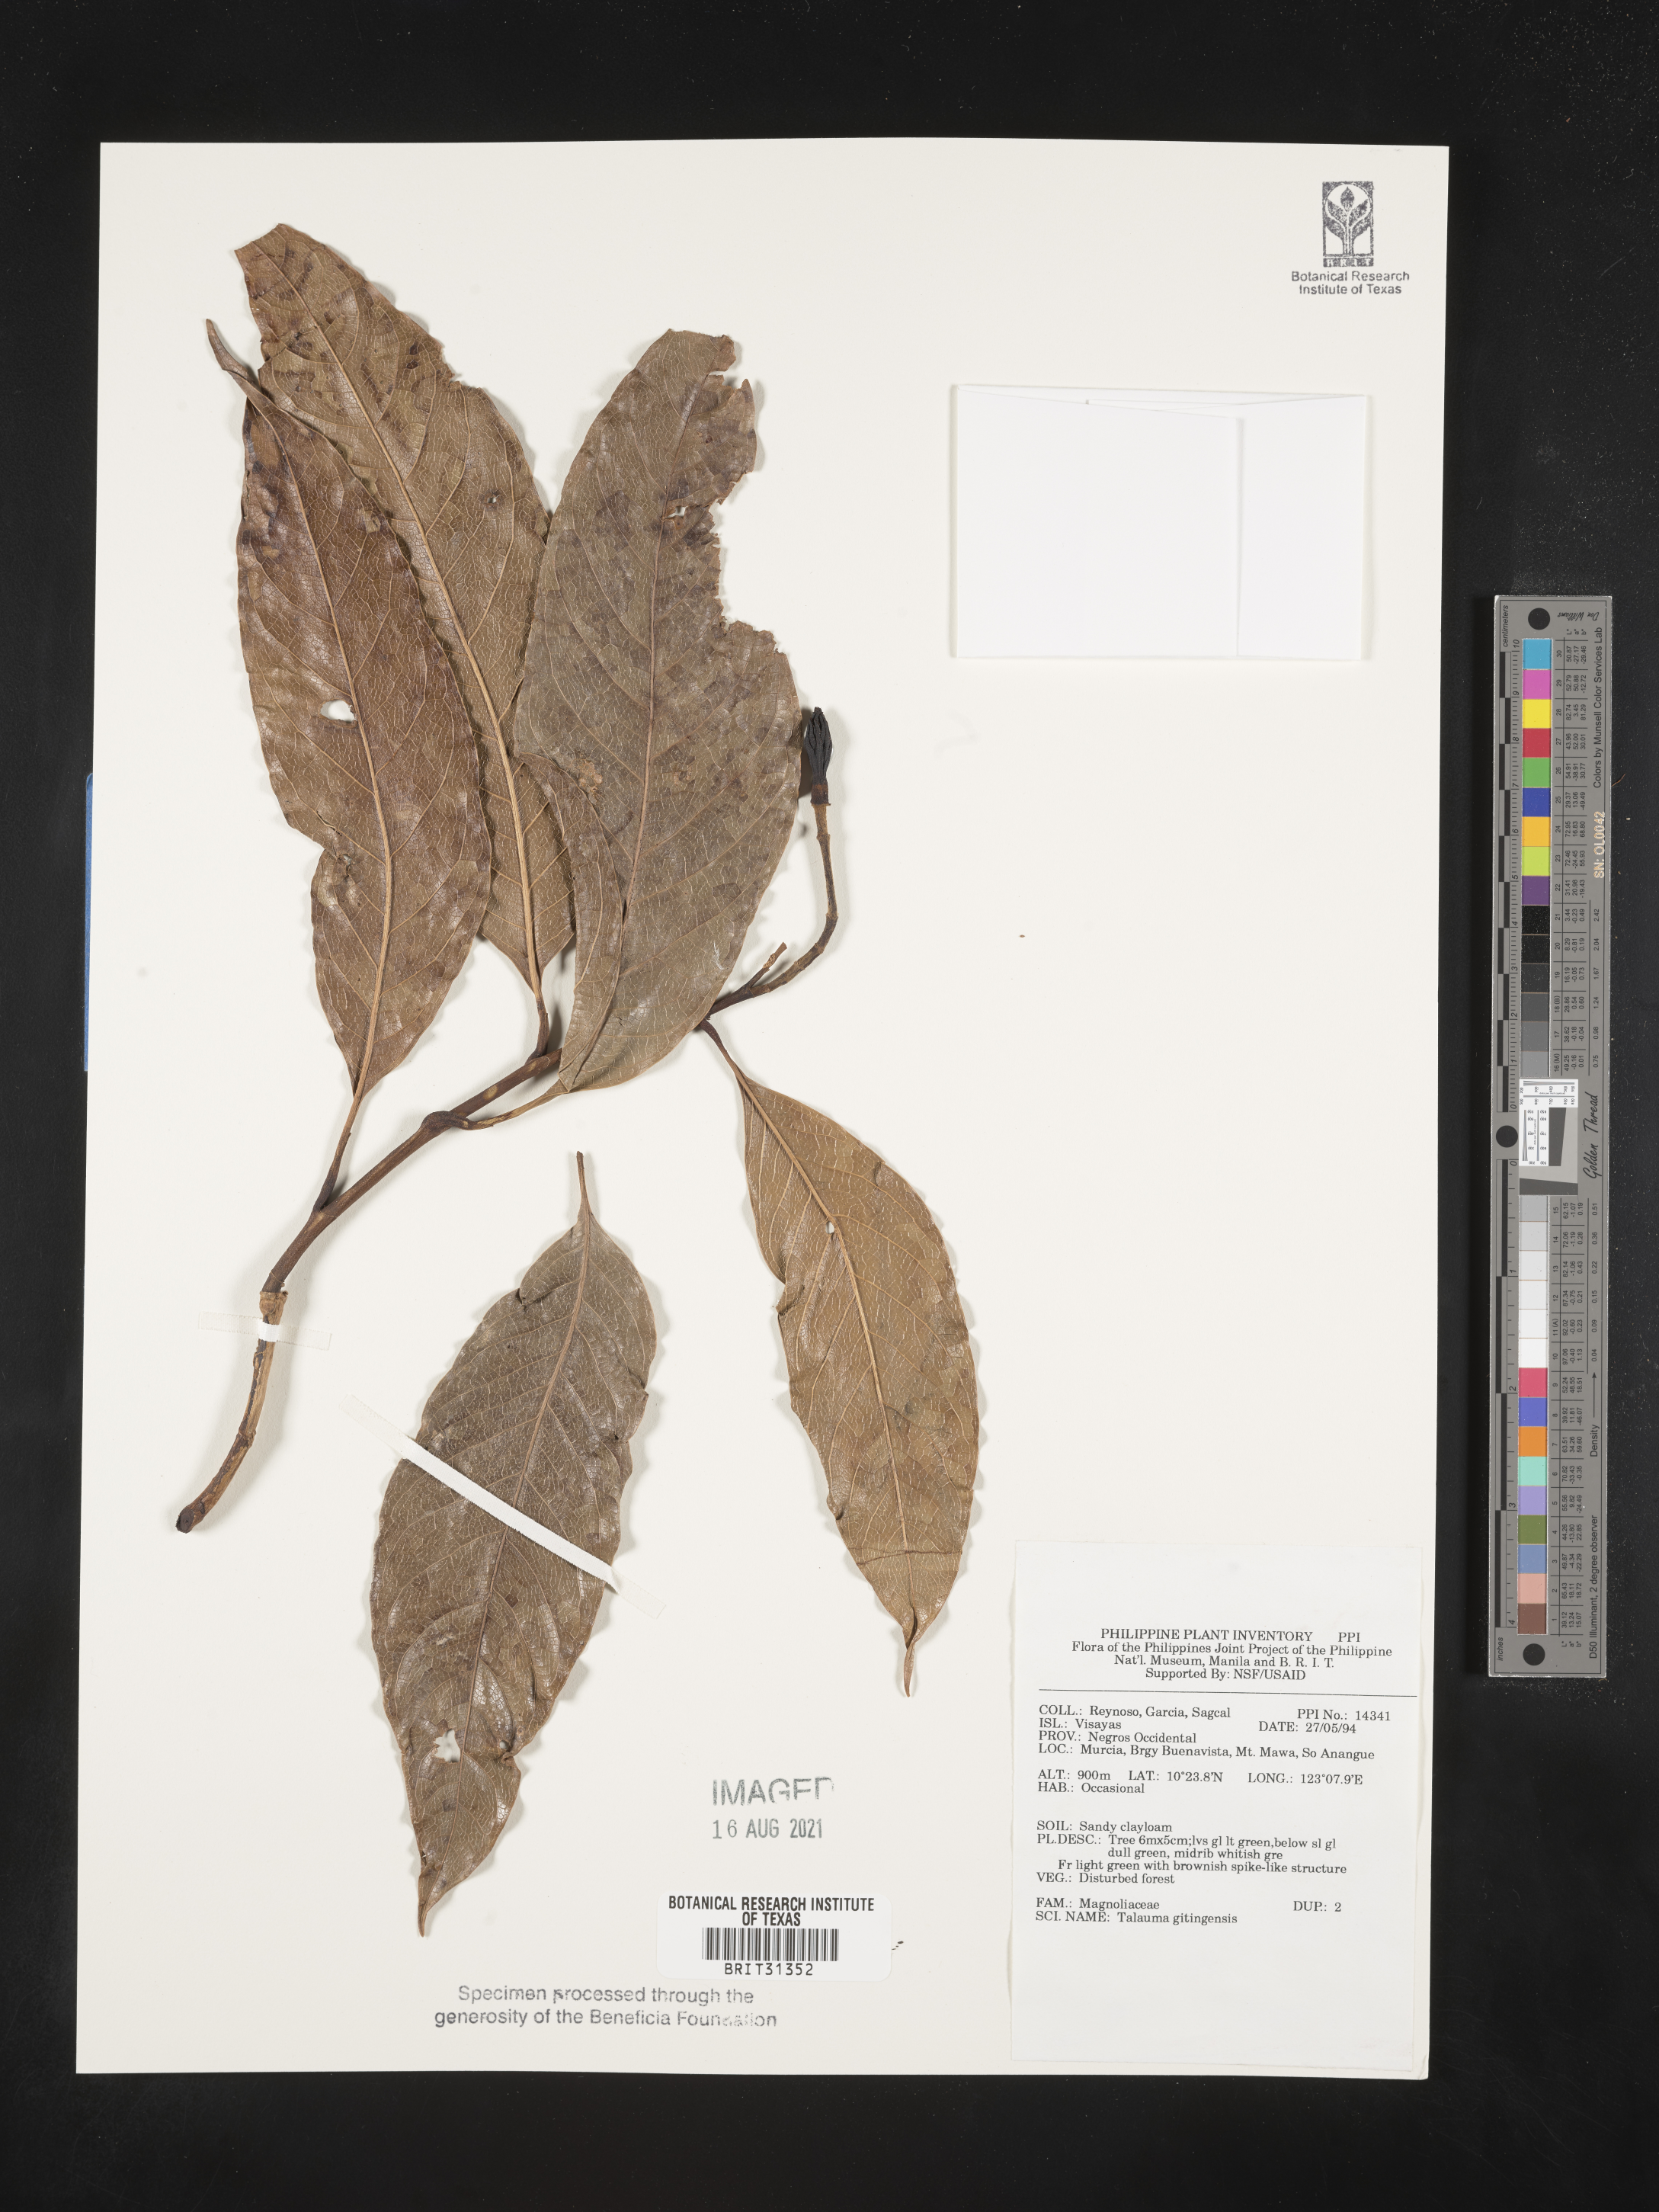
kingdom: Plantae
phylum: Tracheophyta
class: Magnoliopsida
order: Magnoliales
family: Magnoliaceae
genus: Magnolia
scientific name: Magnolia liliifera
